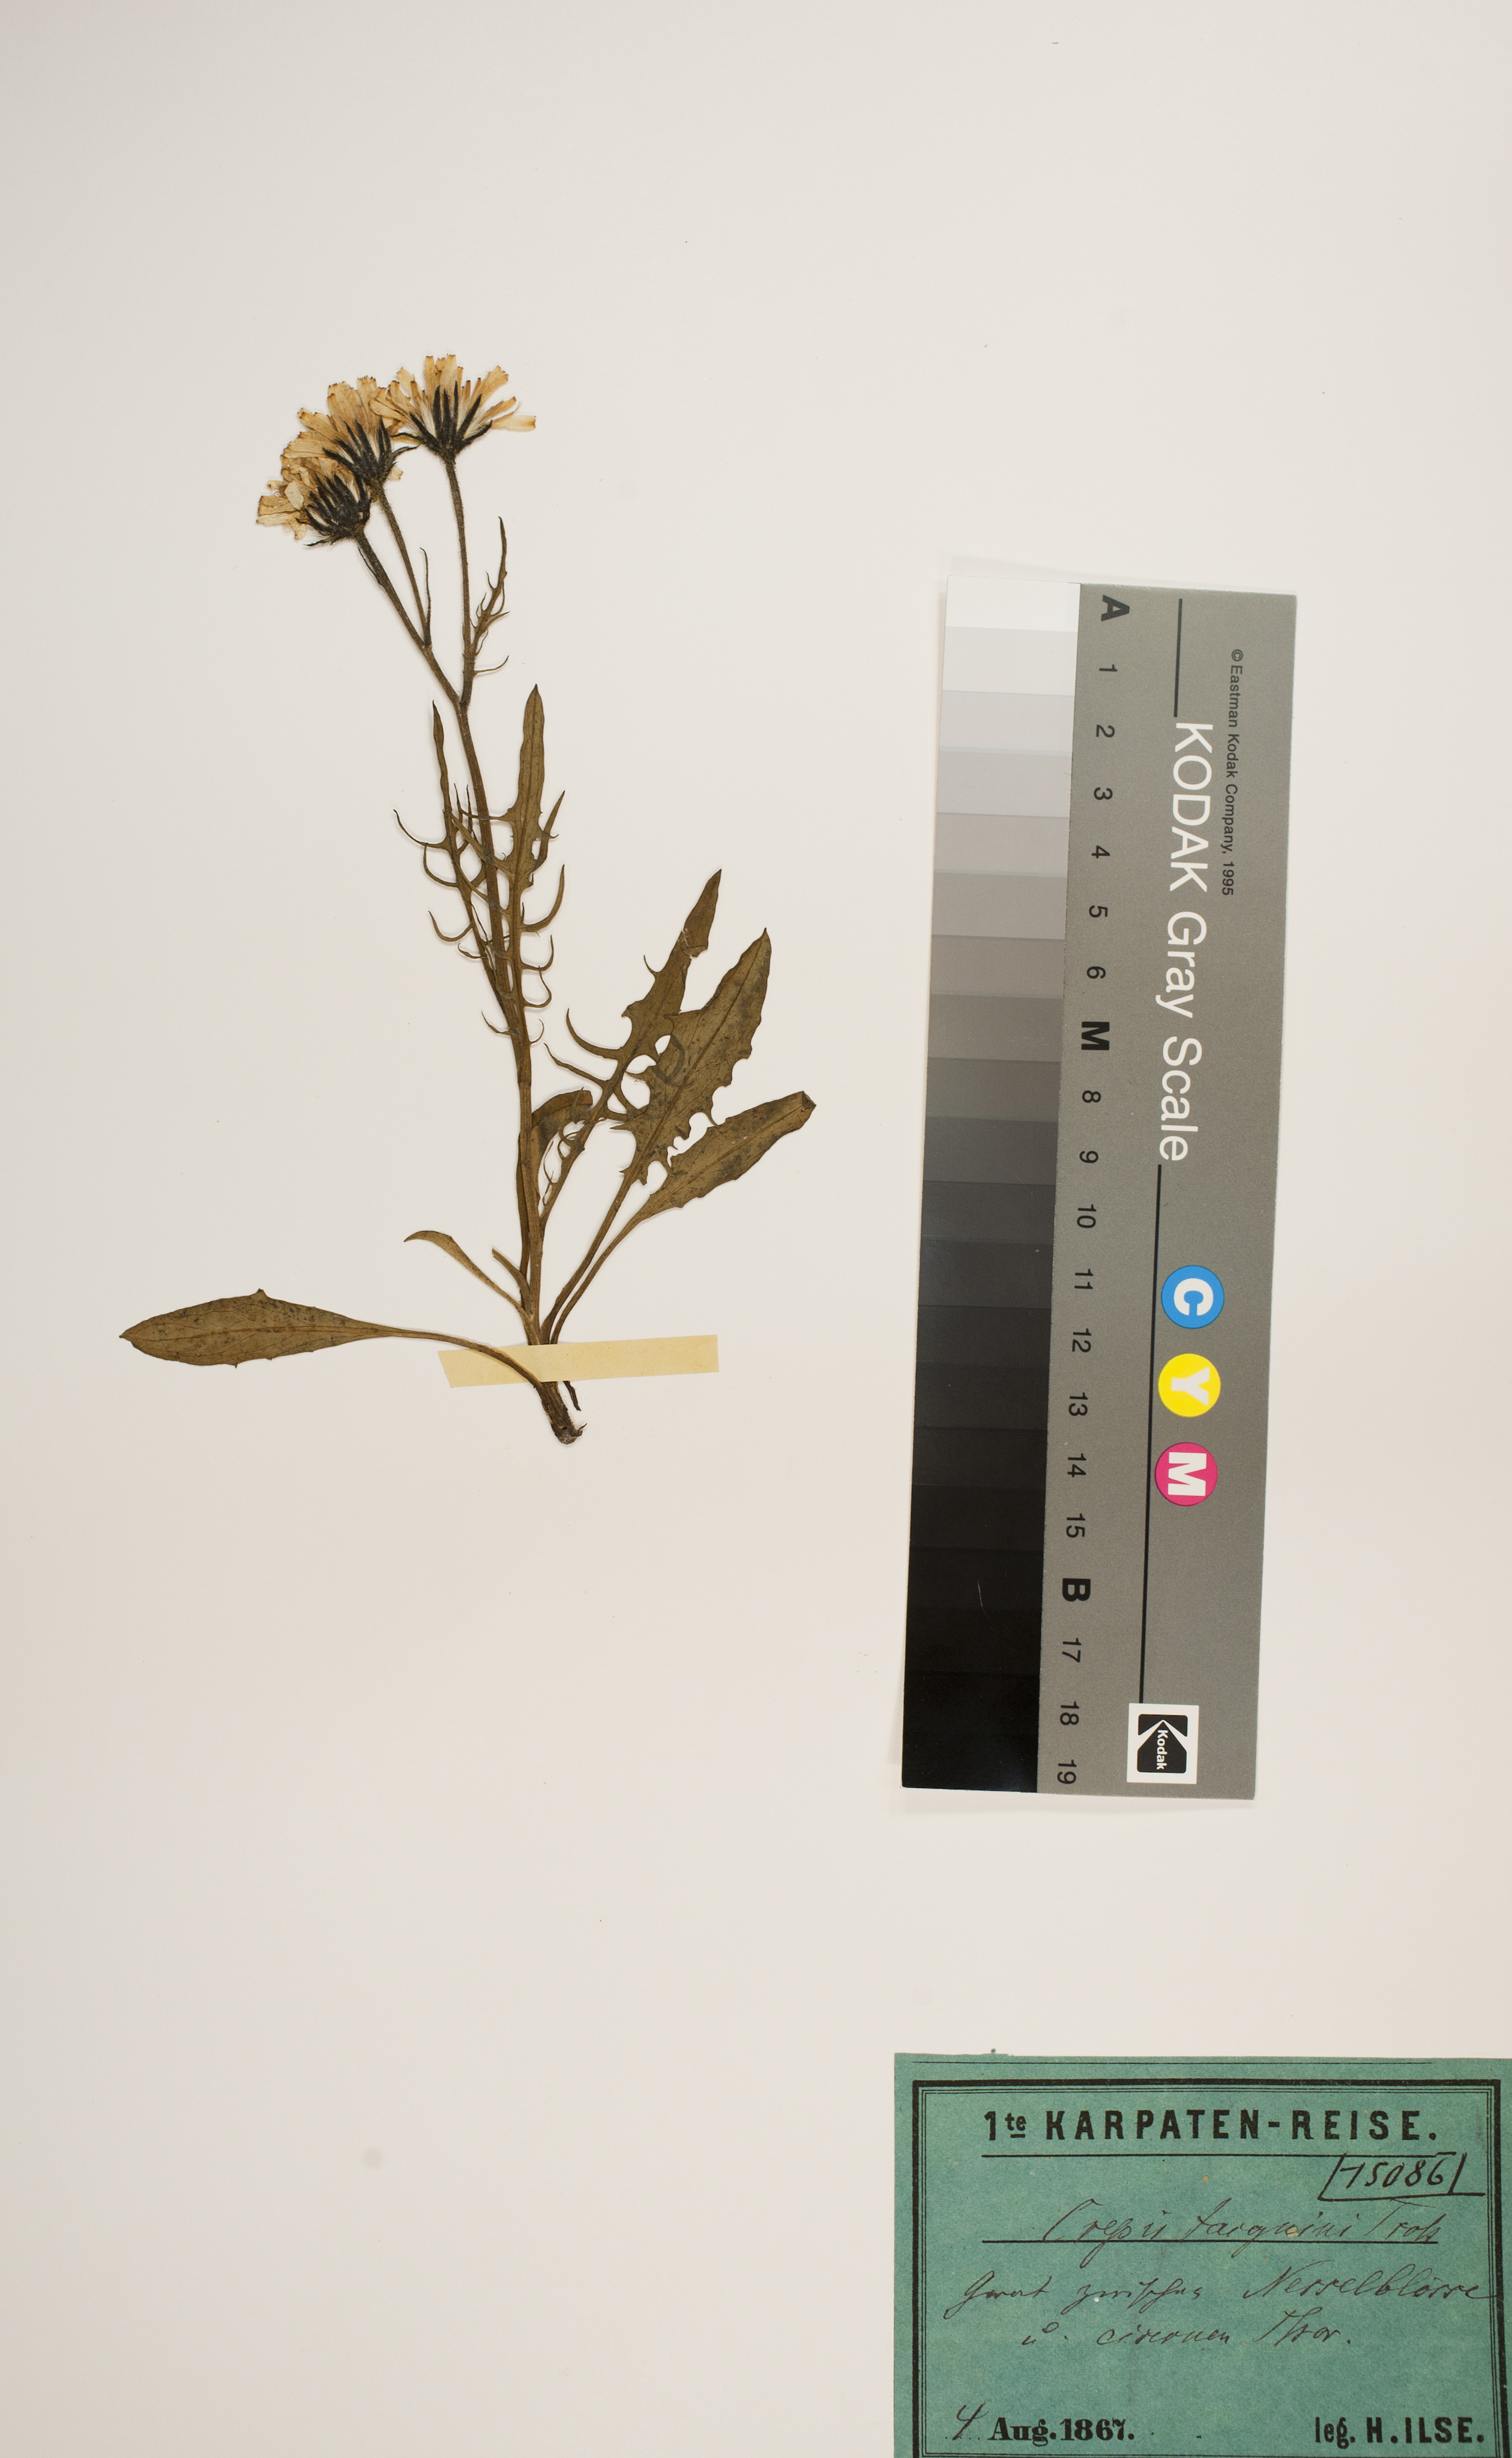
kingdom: Plantae
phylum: Tracheophyta
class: Magnoliopsida
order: Asterales
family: Asteraceae
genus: Crepis
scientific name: Crepis jacquinii
